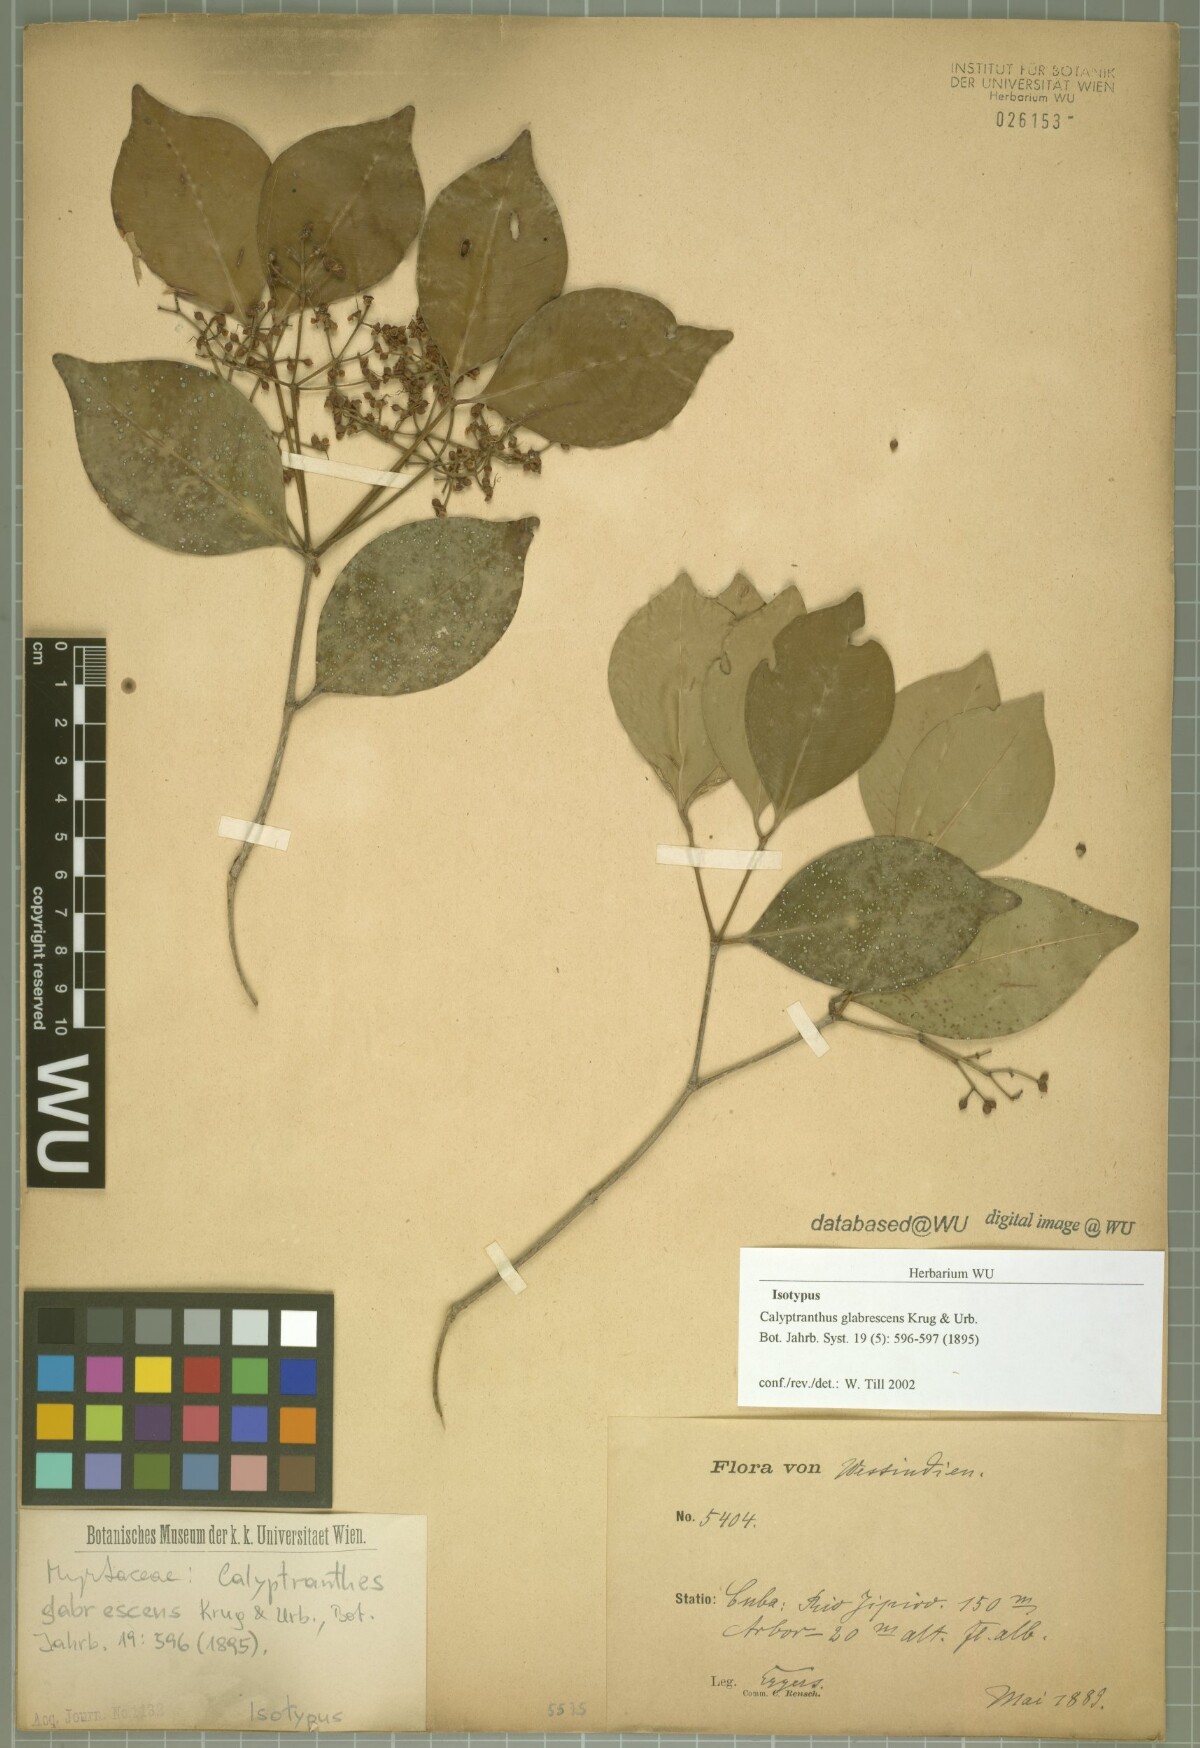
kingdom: Plantae
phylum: Tracheophyta
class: Magnoliopsida
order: Myrtales
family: Myrtaceae
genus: Myrcia
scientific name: Myrcia glabrescens
